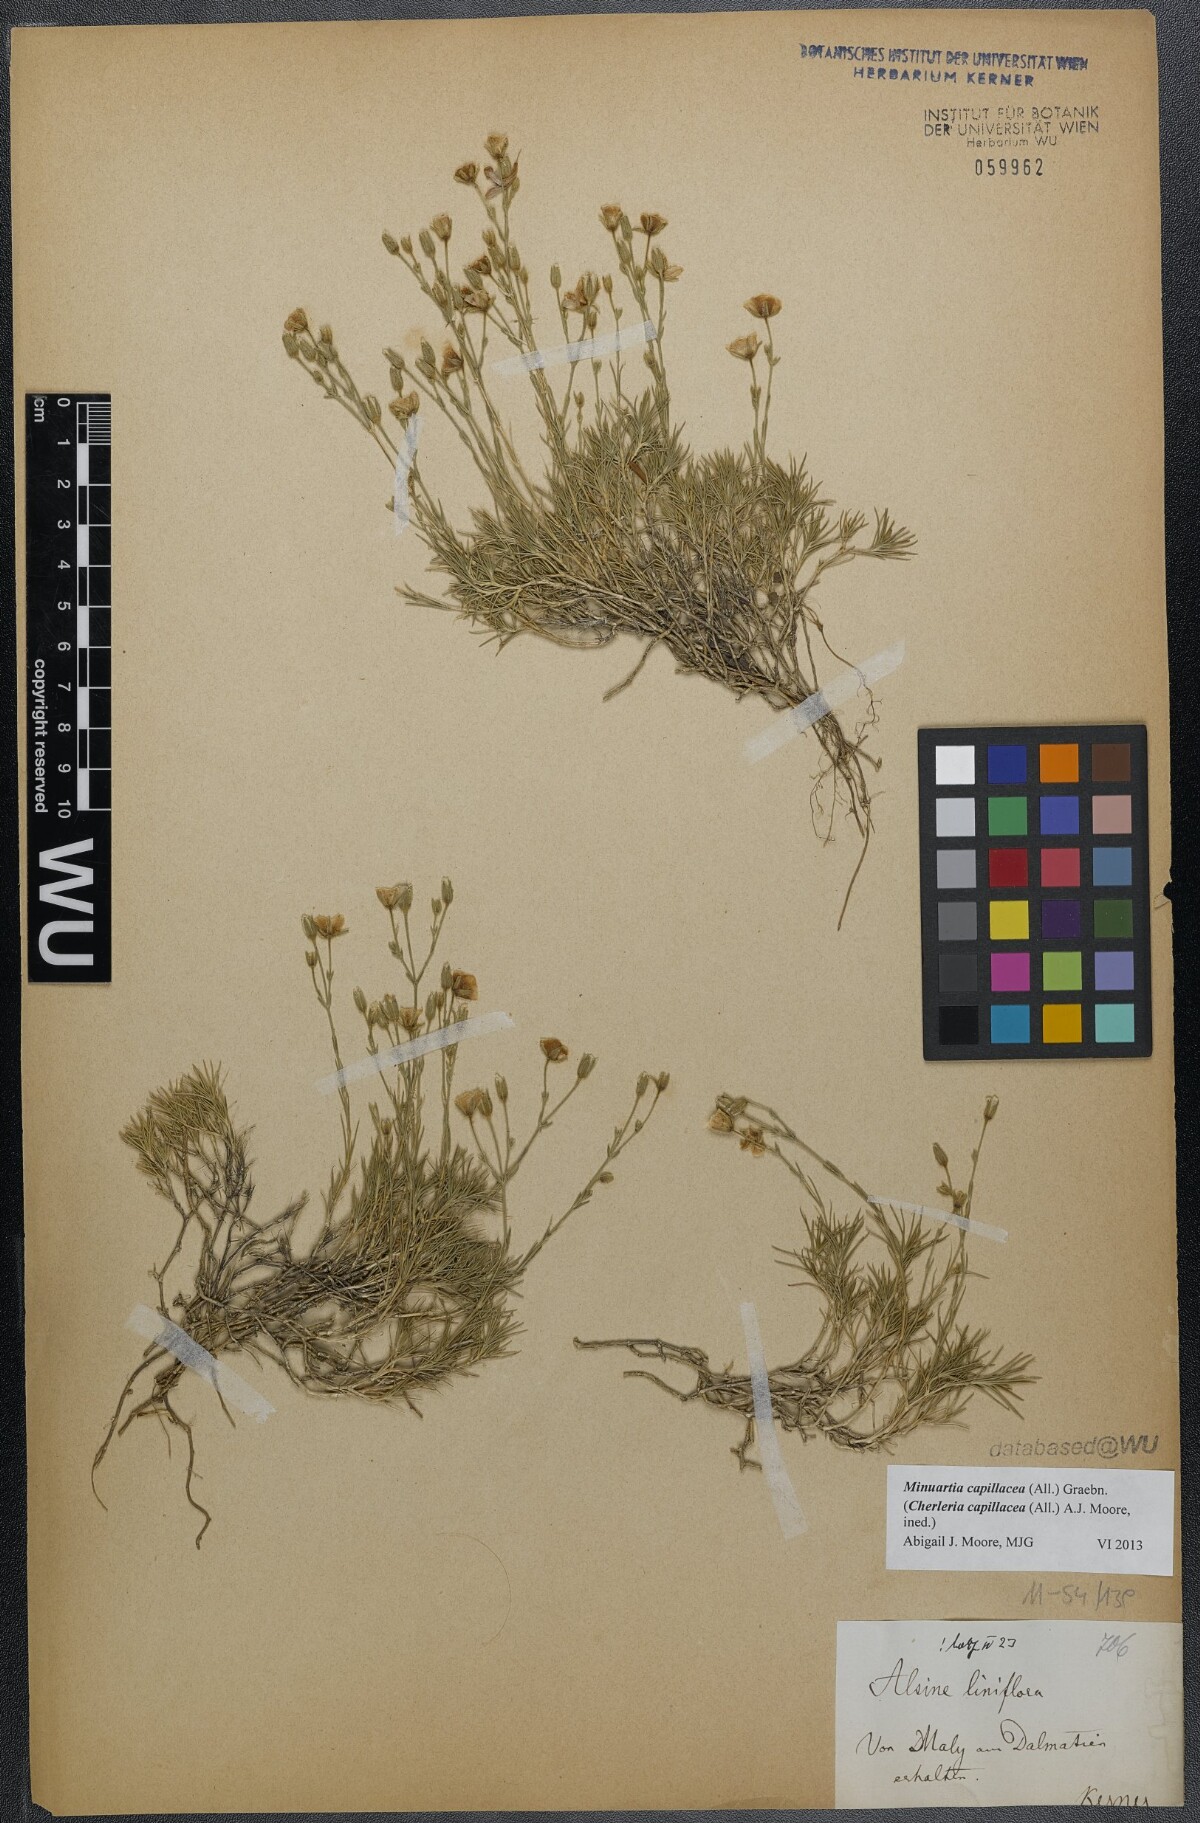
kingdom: Plantae
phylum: Tracheophyta
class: Magnoliopsida
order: Caryophyllales
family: Caryophyllaceae
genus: Cherleria
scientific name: Cherleria capillacea
